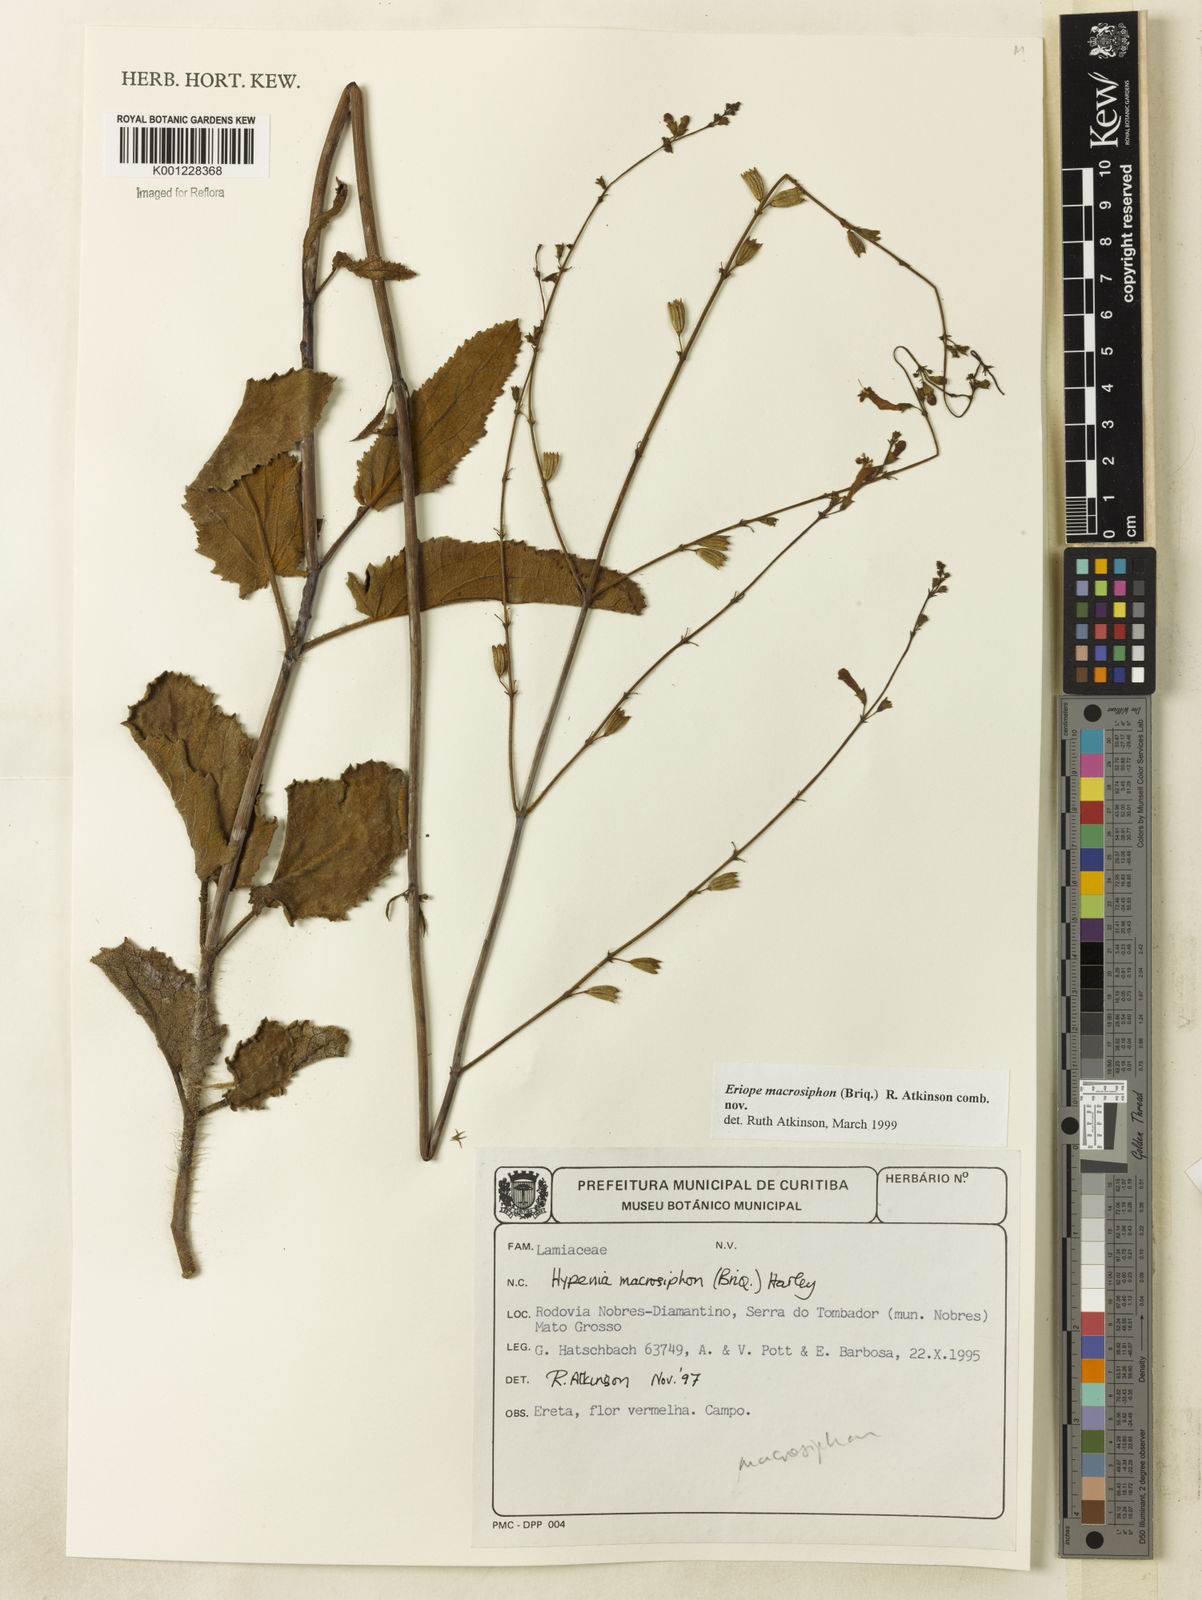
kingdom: Plantae
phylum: Tracheophyta
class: Magnoliopsida
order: Lamiales
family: Lamiaceae
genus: Hypenia
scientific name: Hypenia macrosiphon
